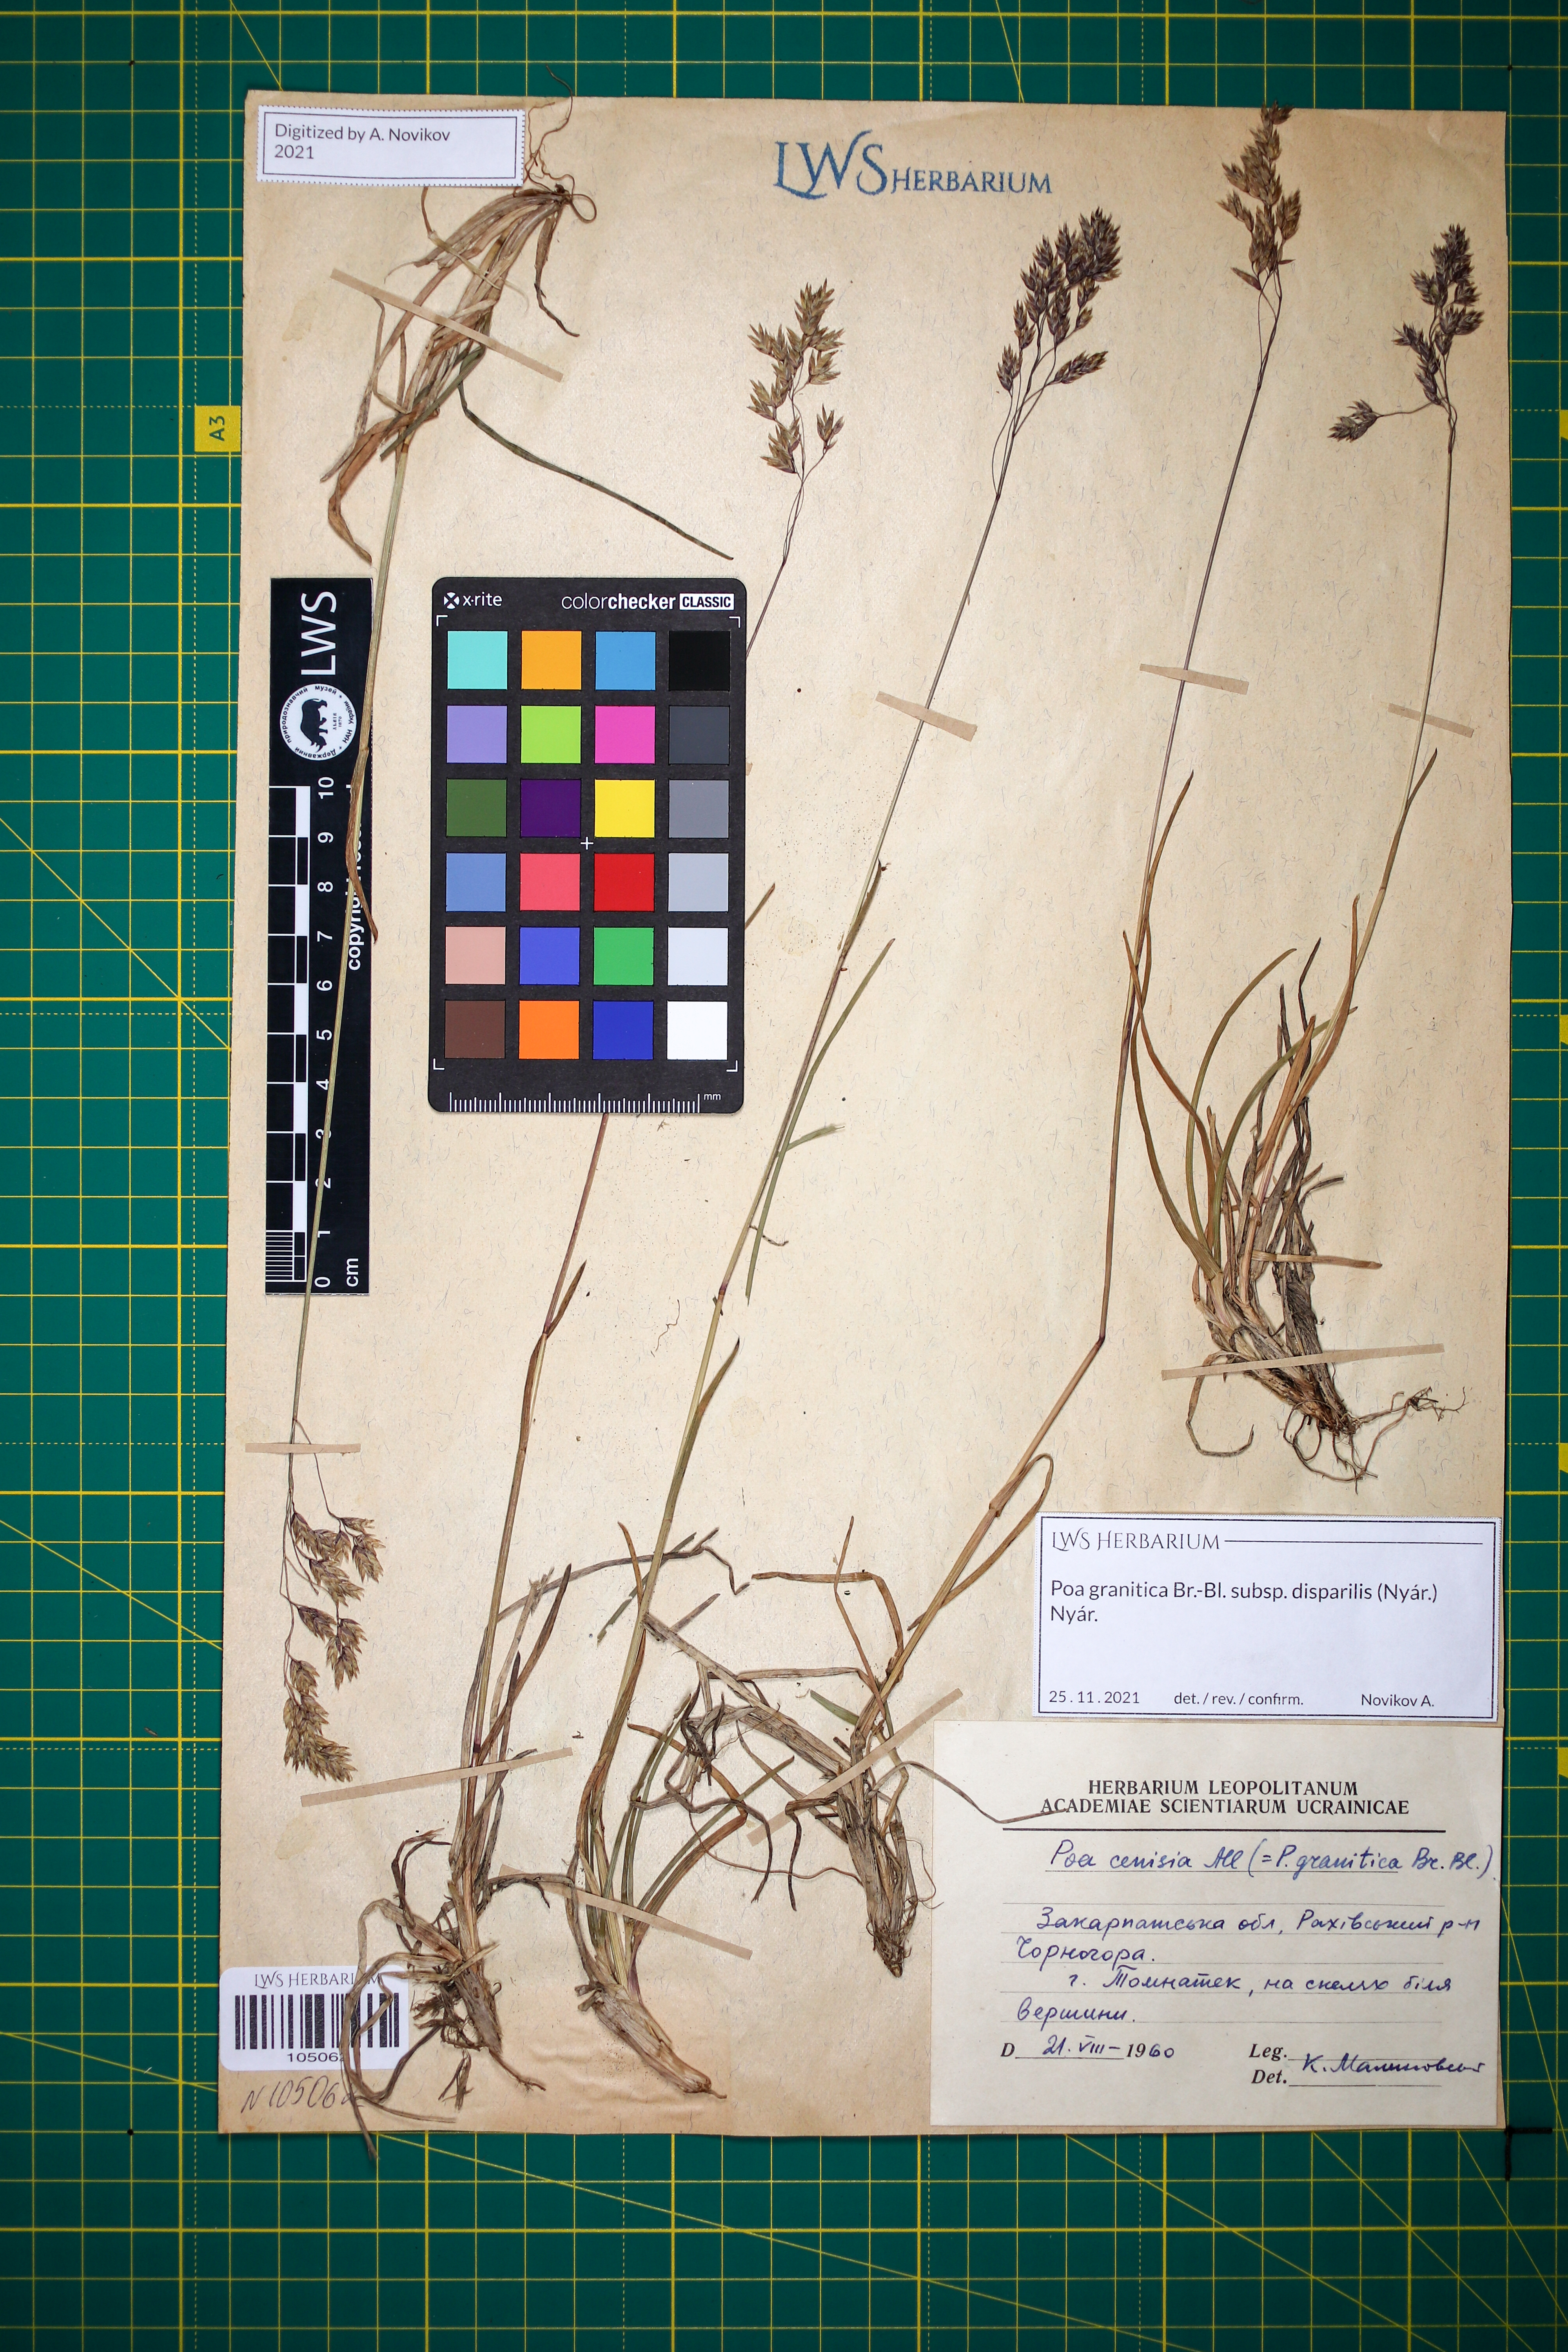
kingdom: Plantae
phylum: Tracheophyta
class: Liliopsida
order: Poales
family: Poaceae
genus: Poa
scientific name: Poa granitica
